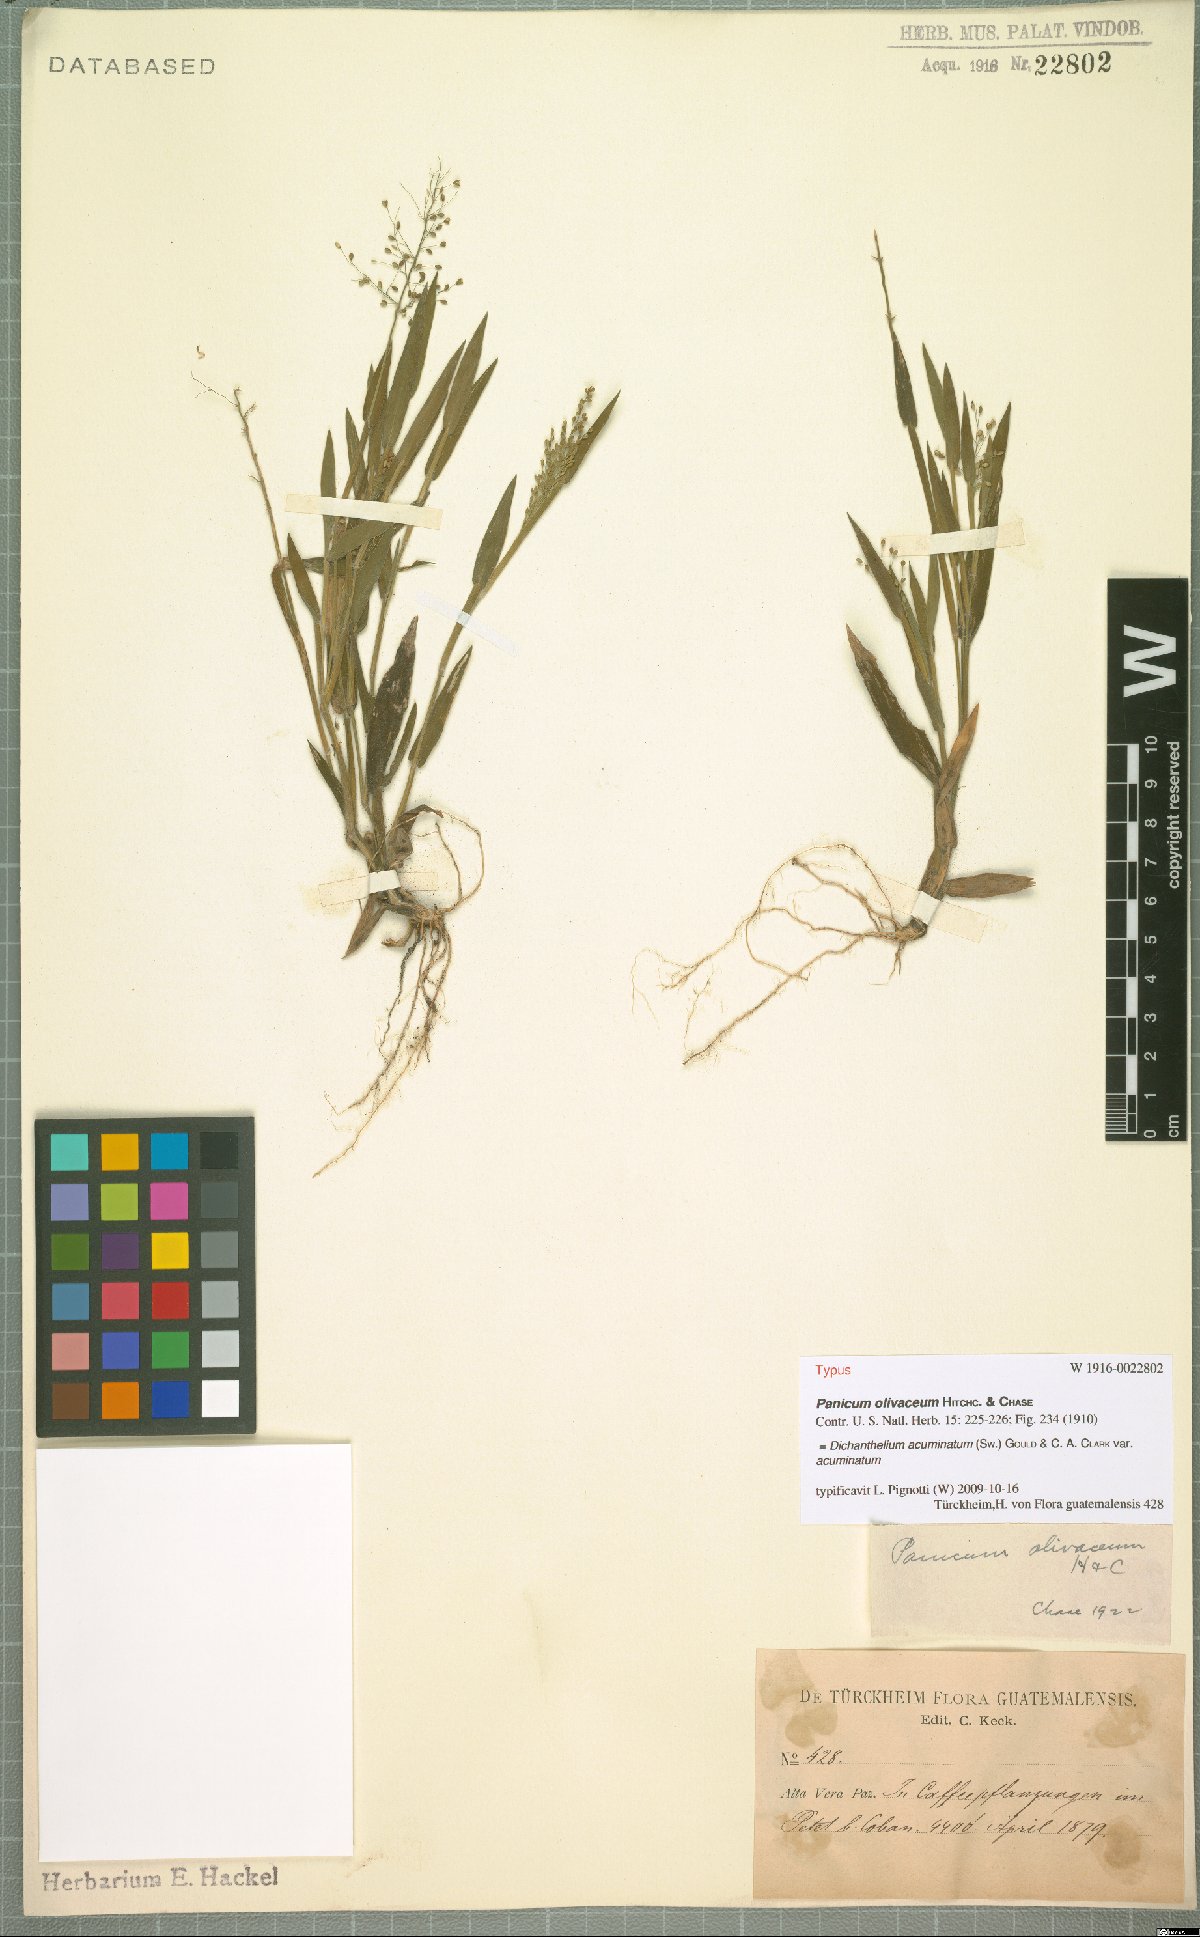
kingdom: Plantae
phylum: Tracheophyta
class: Liliopsida
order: Poales
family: Poaceae
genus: Dichanthelium
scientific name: Dichanthelium acuminatum
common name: Hairy panic grass
